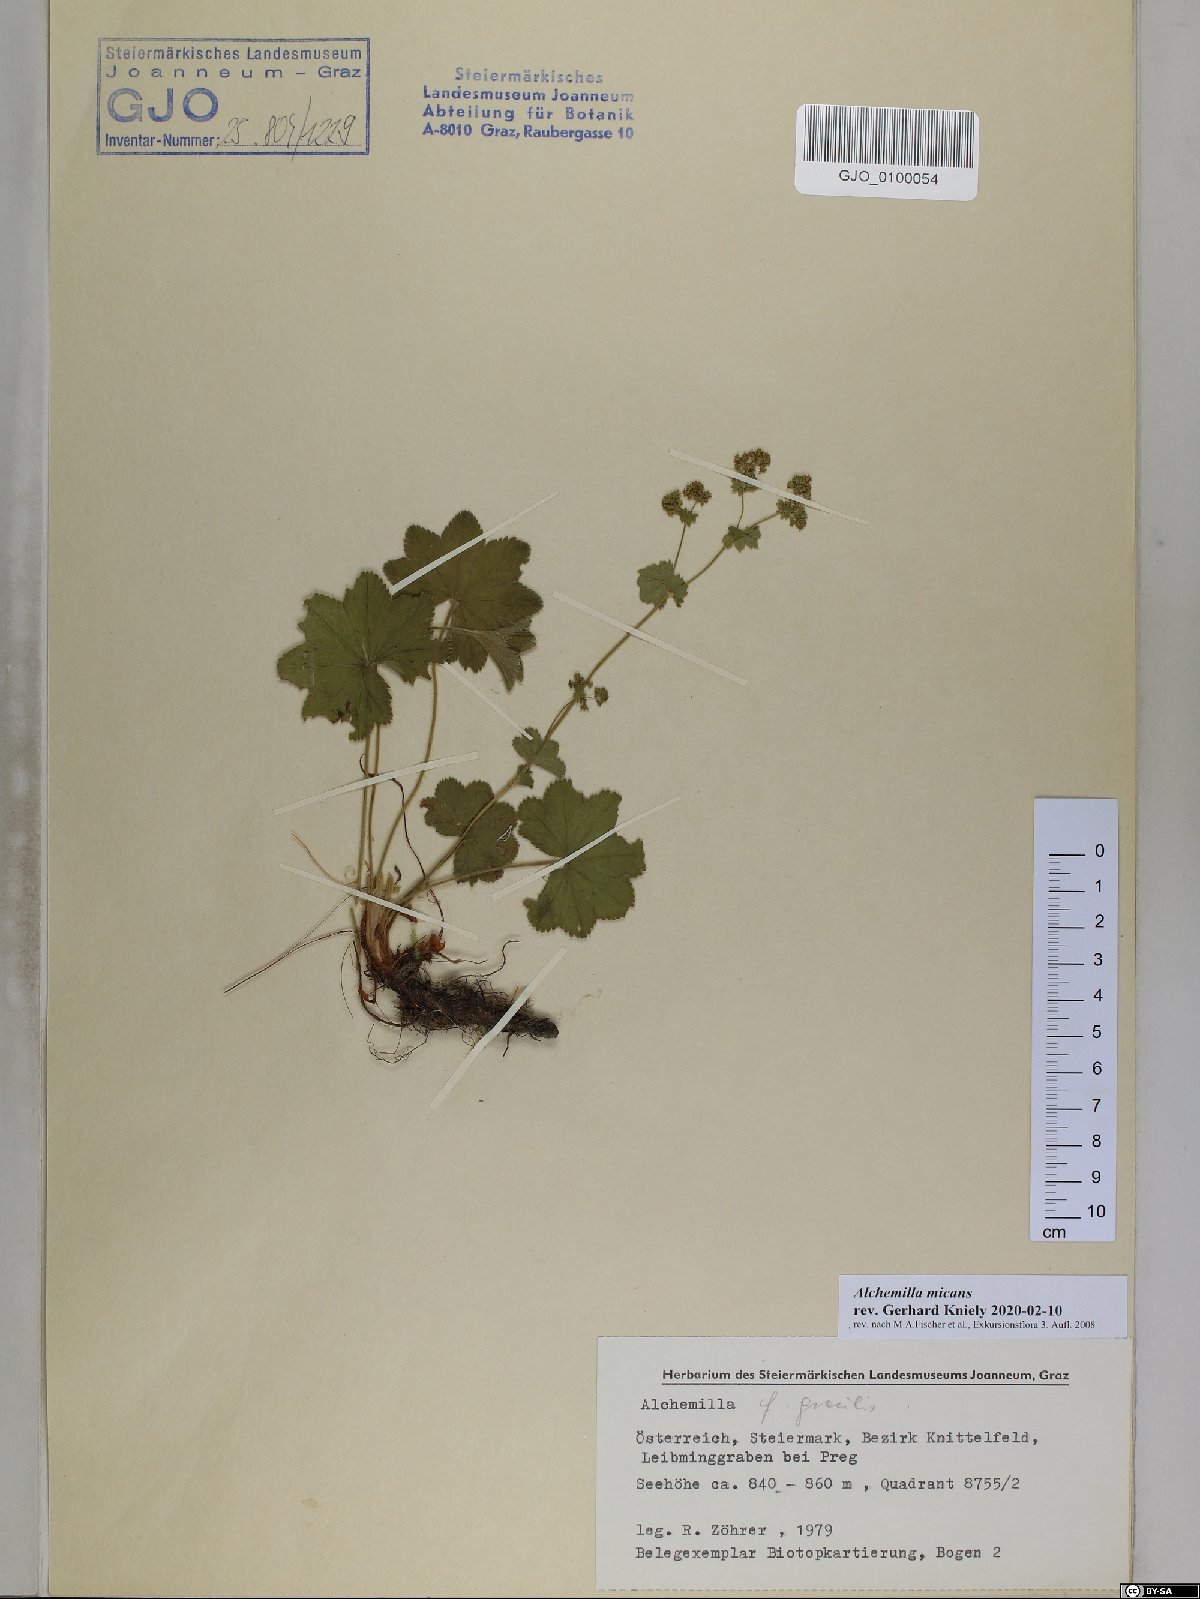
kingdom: Plantae
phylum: Tracheophyta
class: Magnoliopsida
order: Rosales
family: Rosaceae
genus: Alchemilla
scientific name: Alchemilla micans
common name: Gleaming lady's mantle
